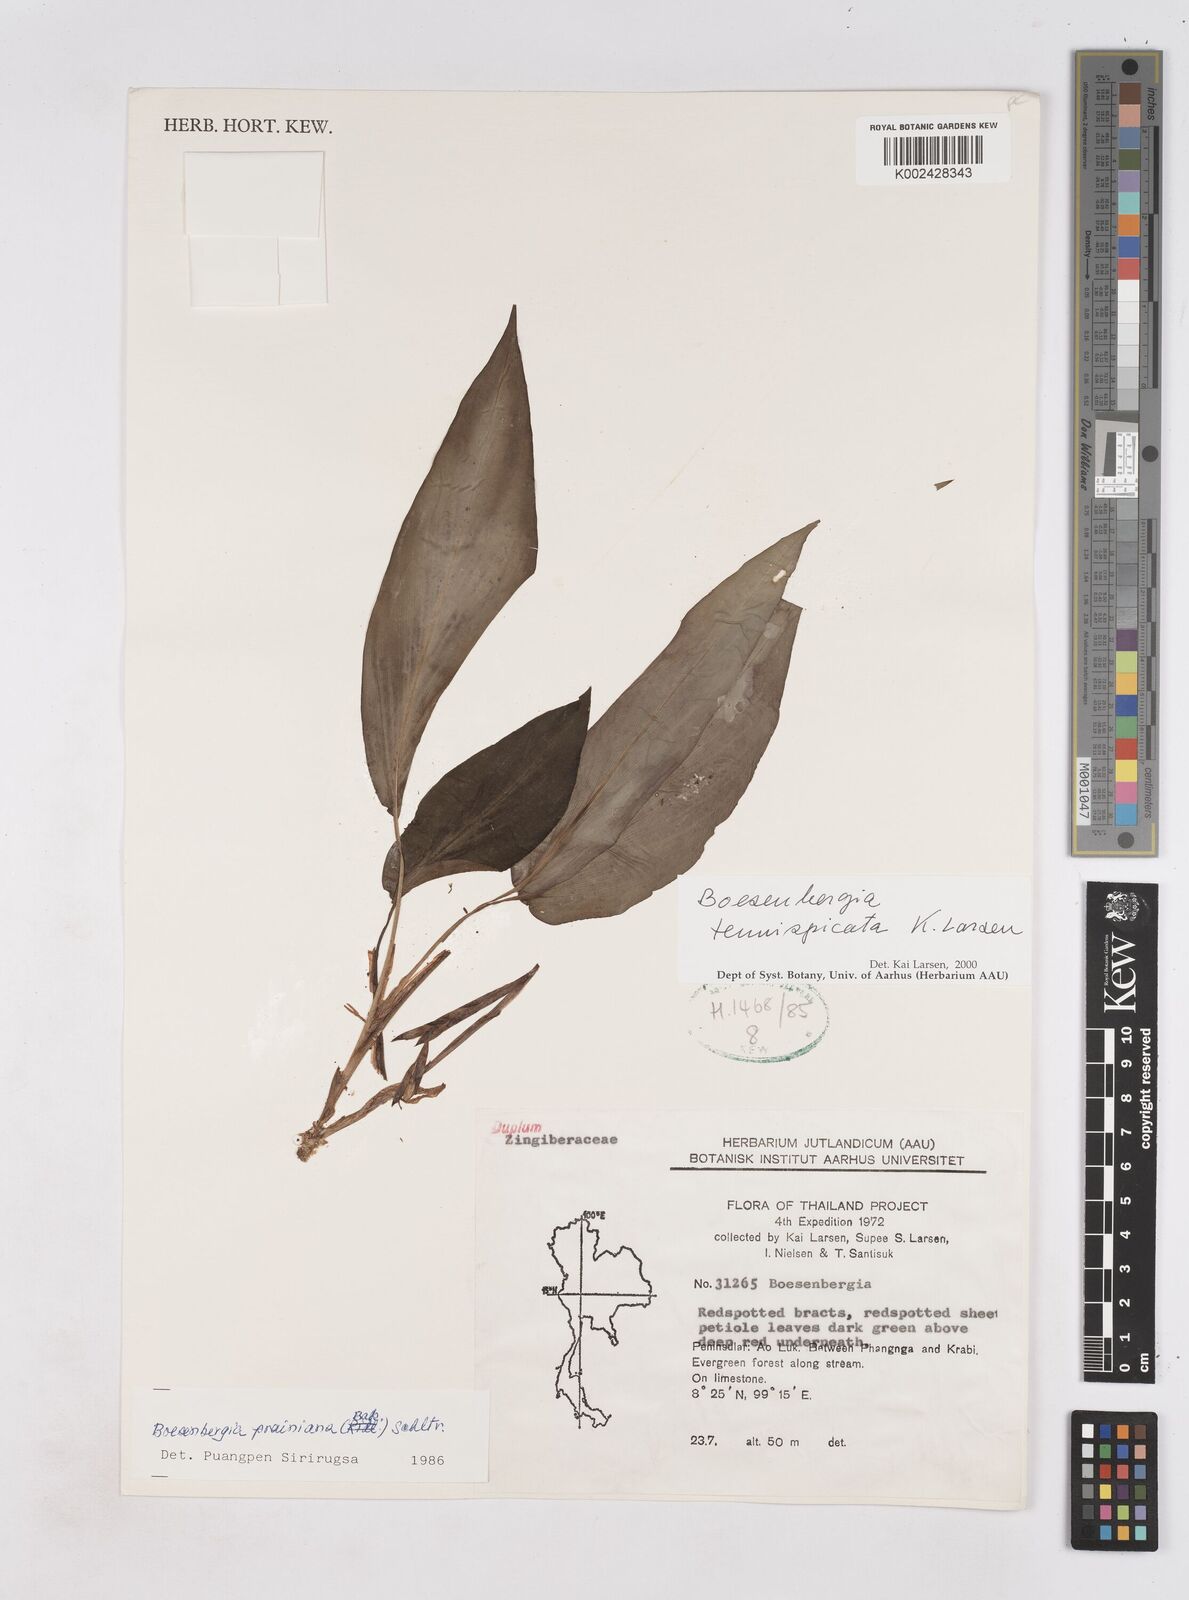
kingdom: Plantae
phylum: Tracheophyta
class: Liliopsida
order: Zingiberales
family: Zingiberaceae
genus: Boesenbergia
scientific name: Boesenbergia tenuispicata
